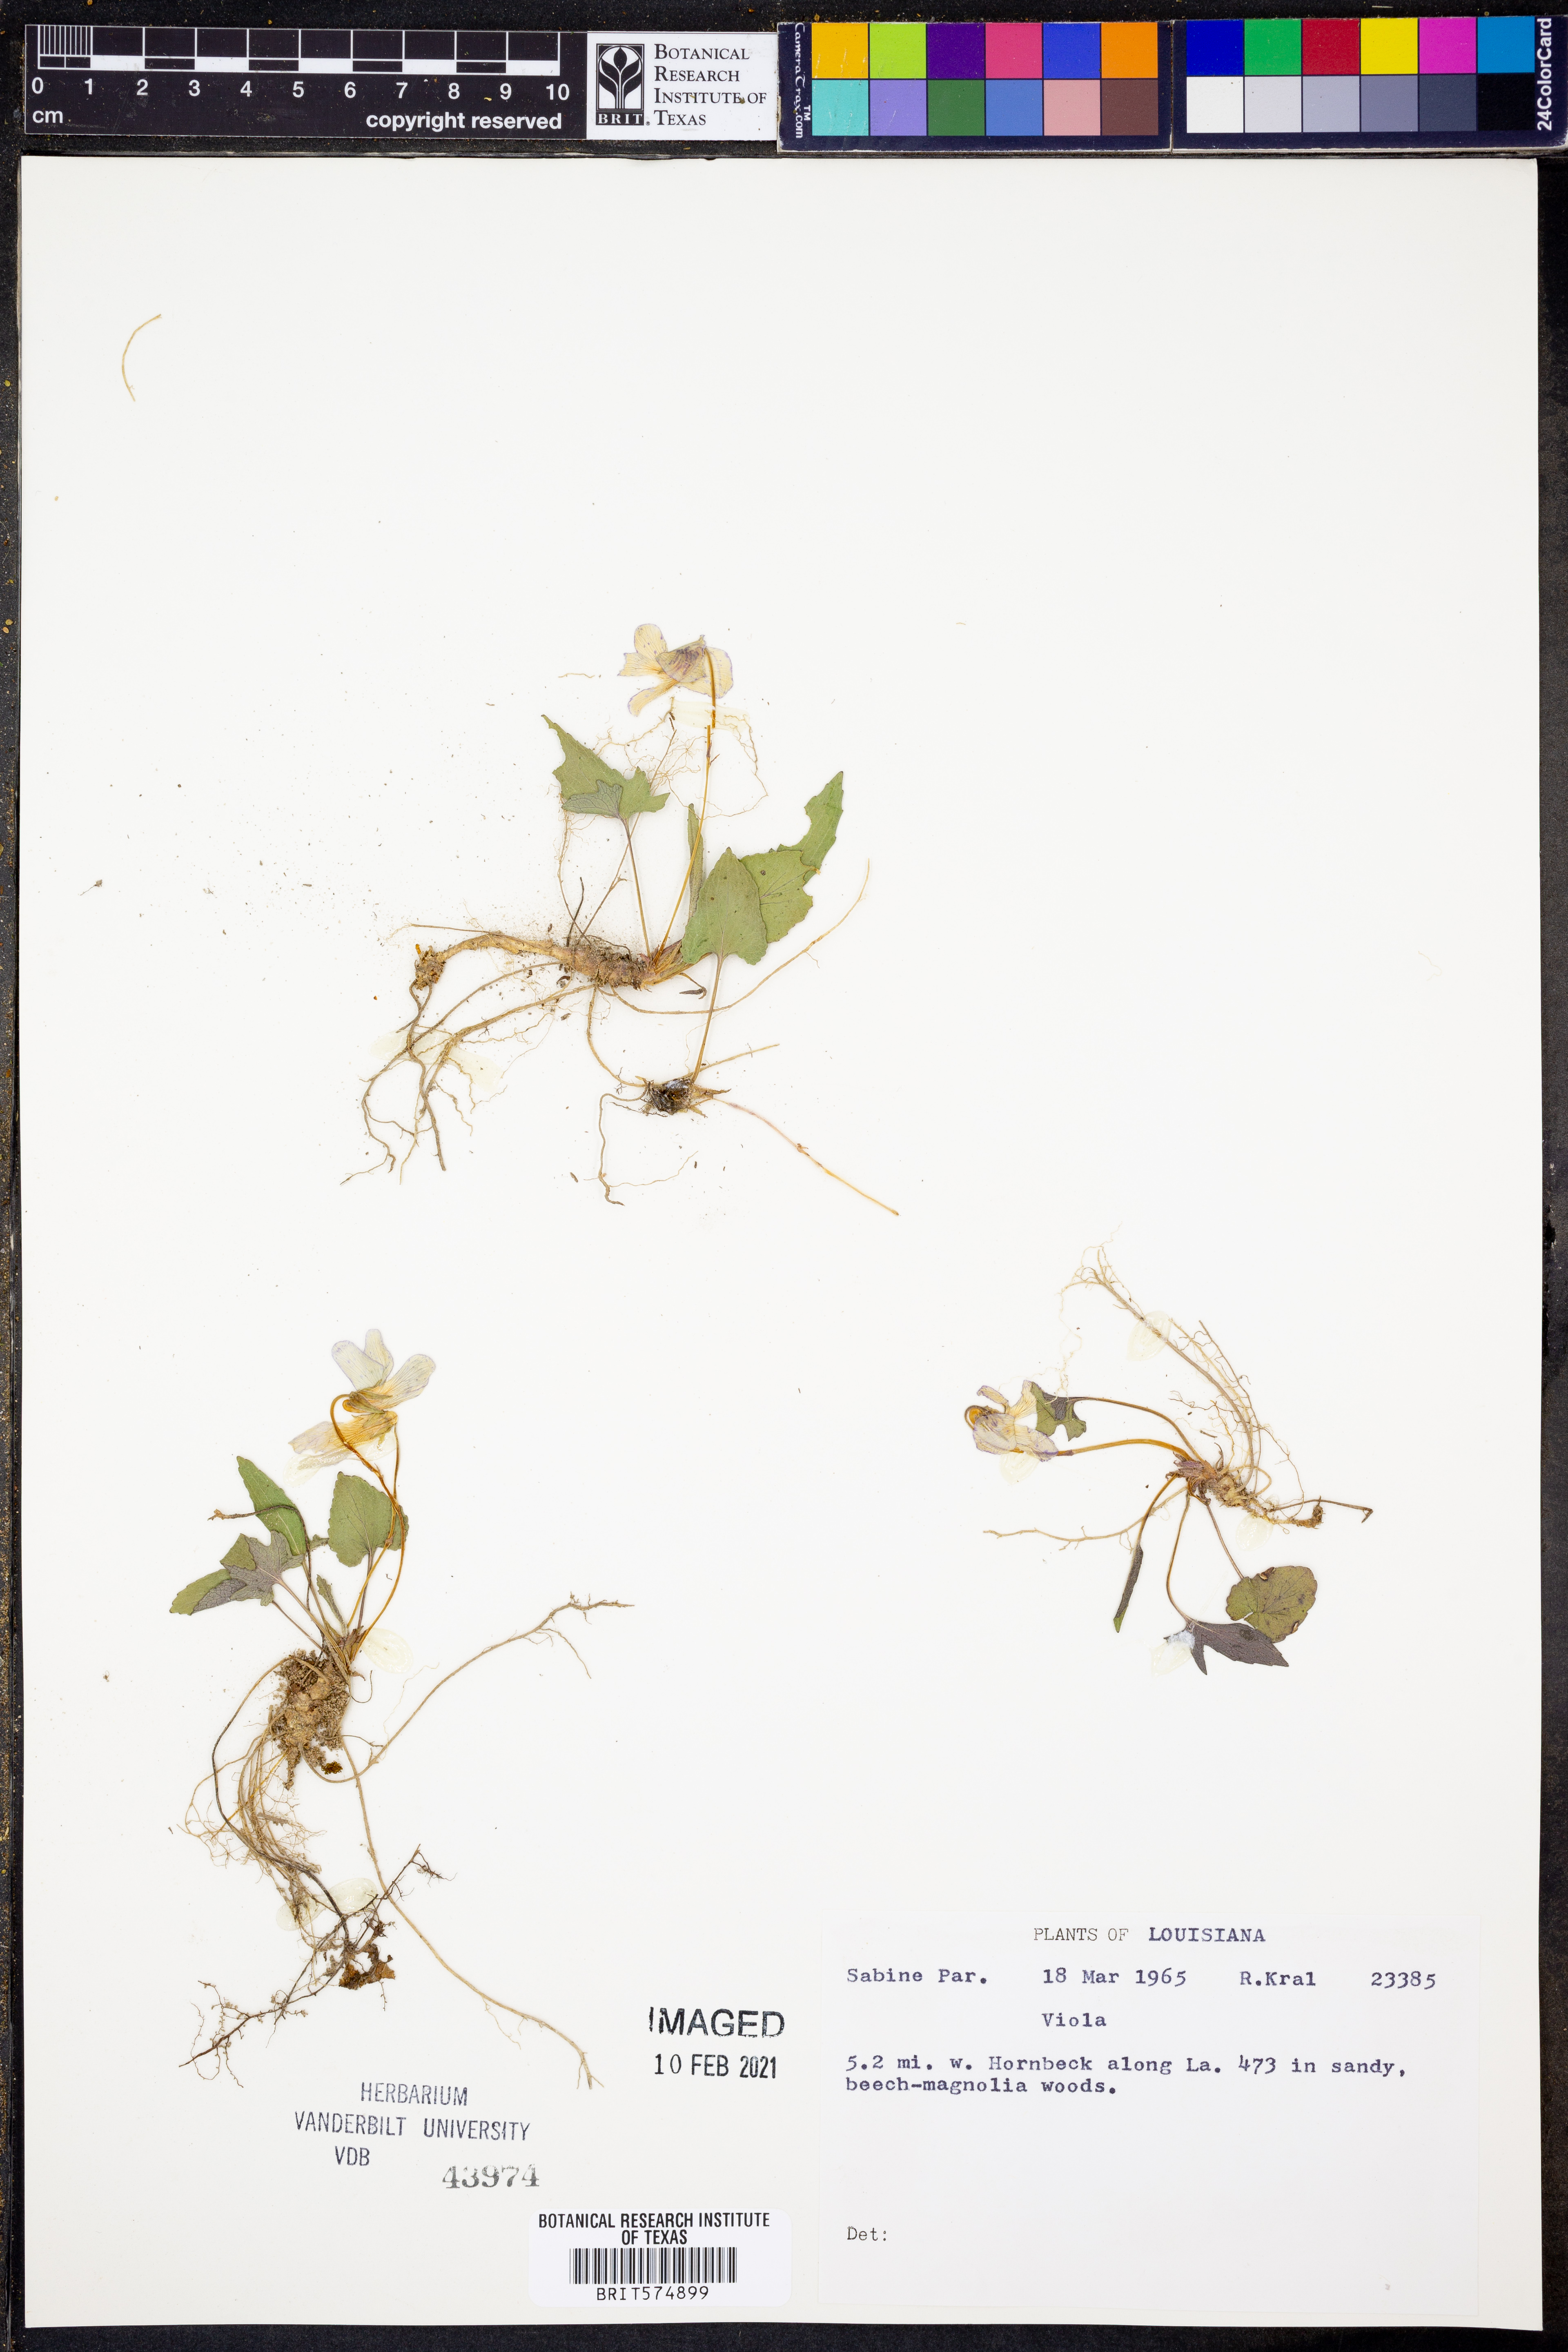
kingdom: Plantae
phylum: Tracheophyta
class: Magnoliopsida
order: Malpighiales
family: Violaceae
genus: Viola
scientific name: Viola
